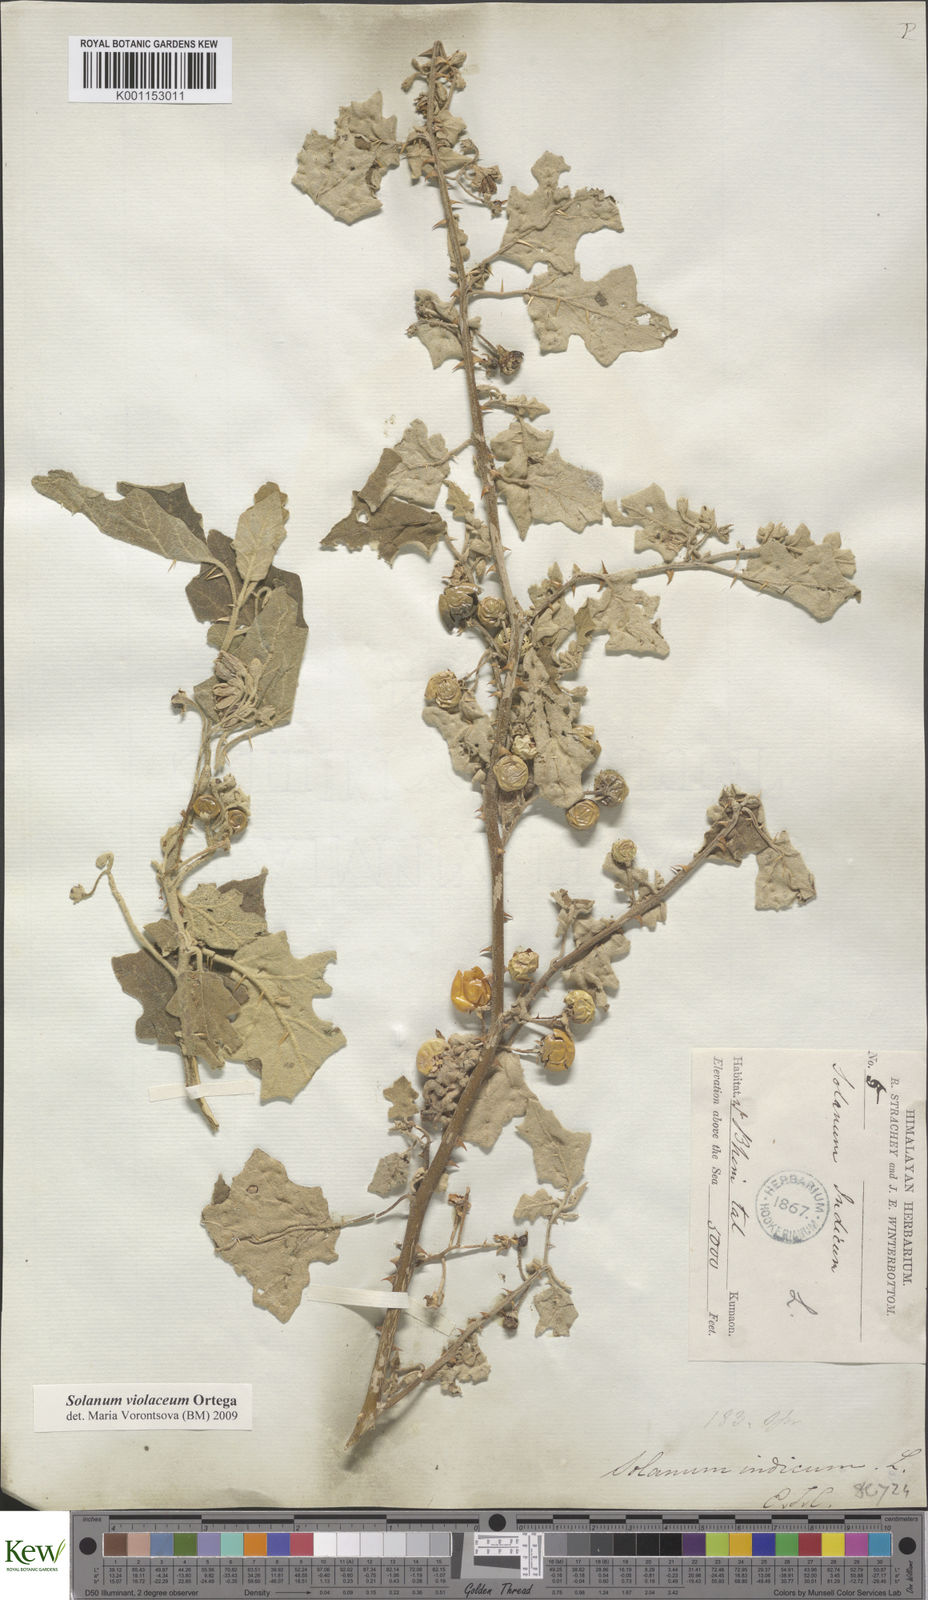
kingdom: Plantae
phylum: Tracheophyta
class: Magnoliopsida
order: Solanales
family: Solanaceae
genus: Solanum
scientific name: Solanum violaceum
